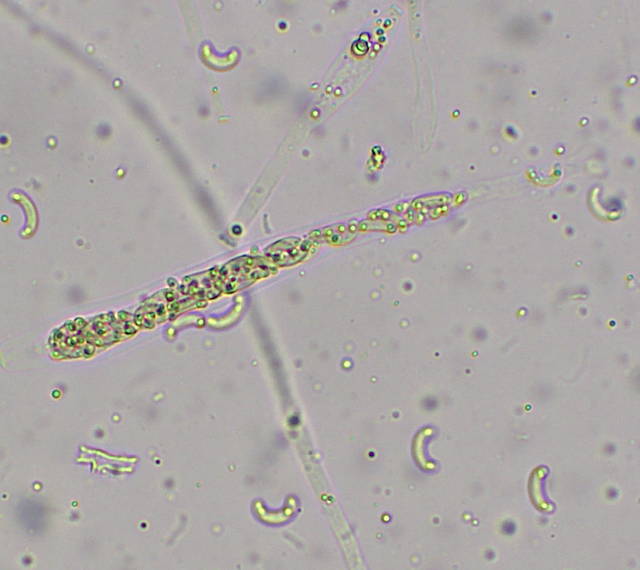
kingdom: Fungi
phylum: Ascomycota
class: Sordariomycetes
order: Xylariales
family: Diatrypaceae
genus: Diatrypella
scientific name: Diatrypella quercina
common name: ege-kulskorpe
